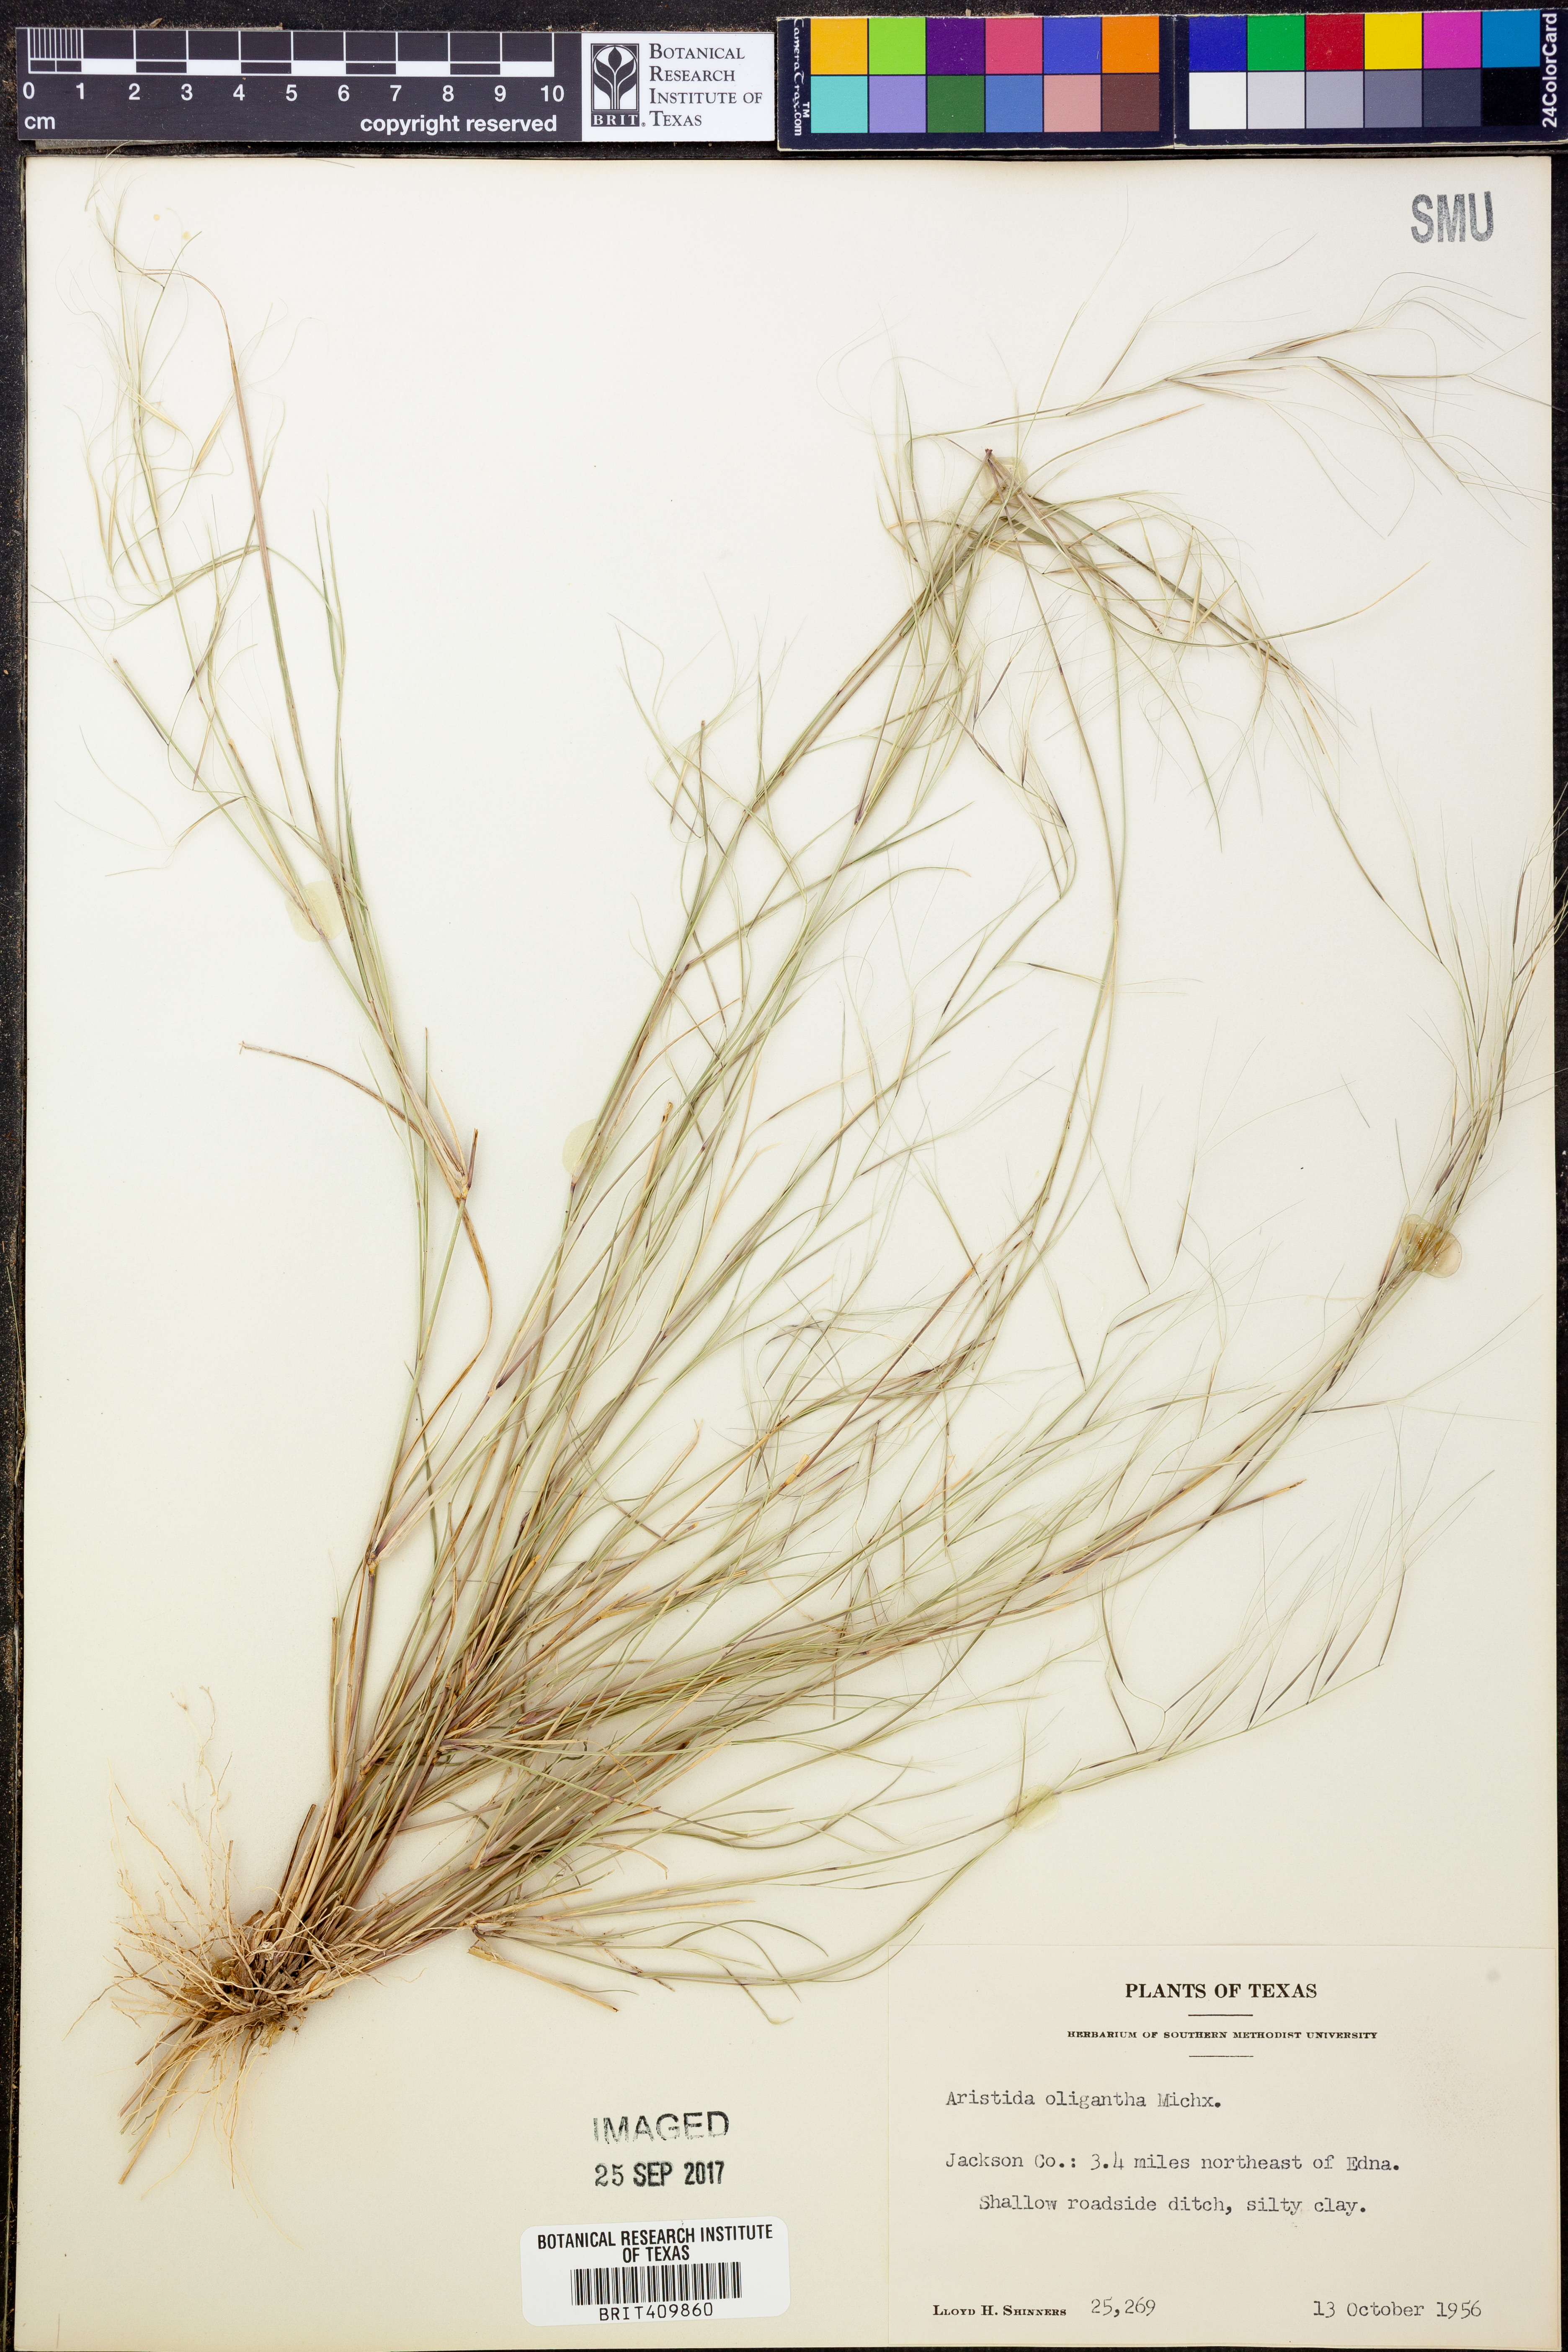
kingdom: Plantae
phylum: Tracheophyta
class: Liliopsida
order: Poales
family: Poaceae
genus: Aristida
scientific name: Aristida oligantha
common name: Few-flowered aristida
